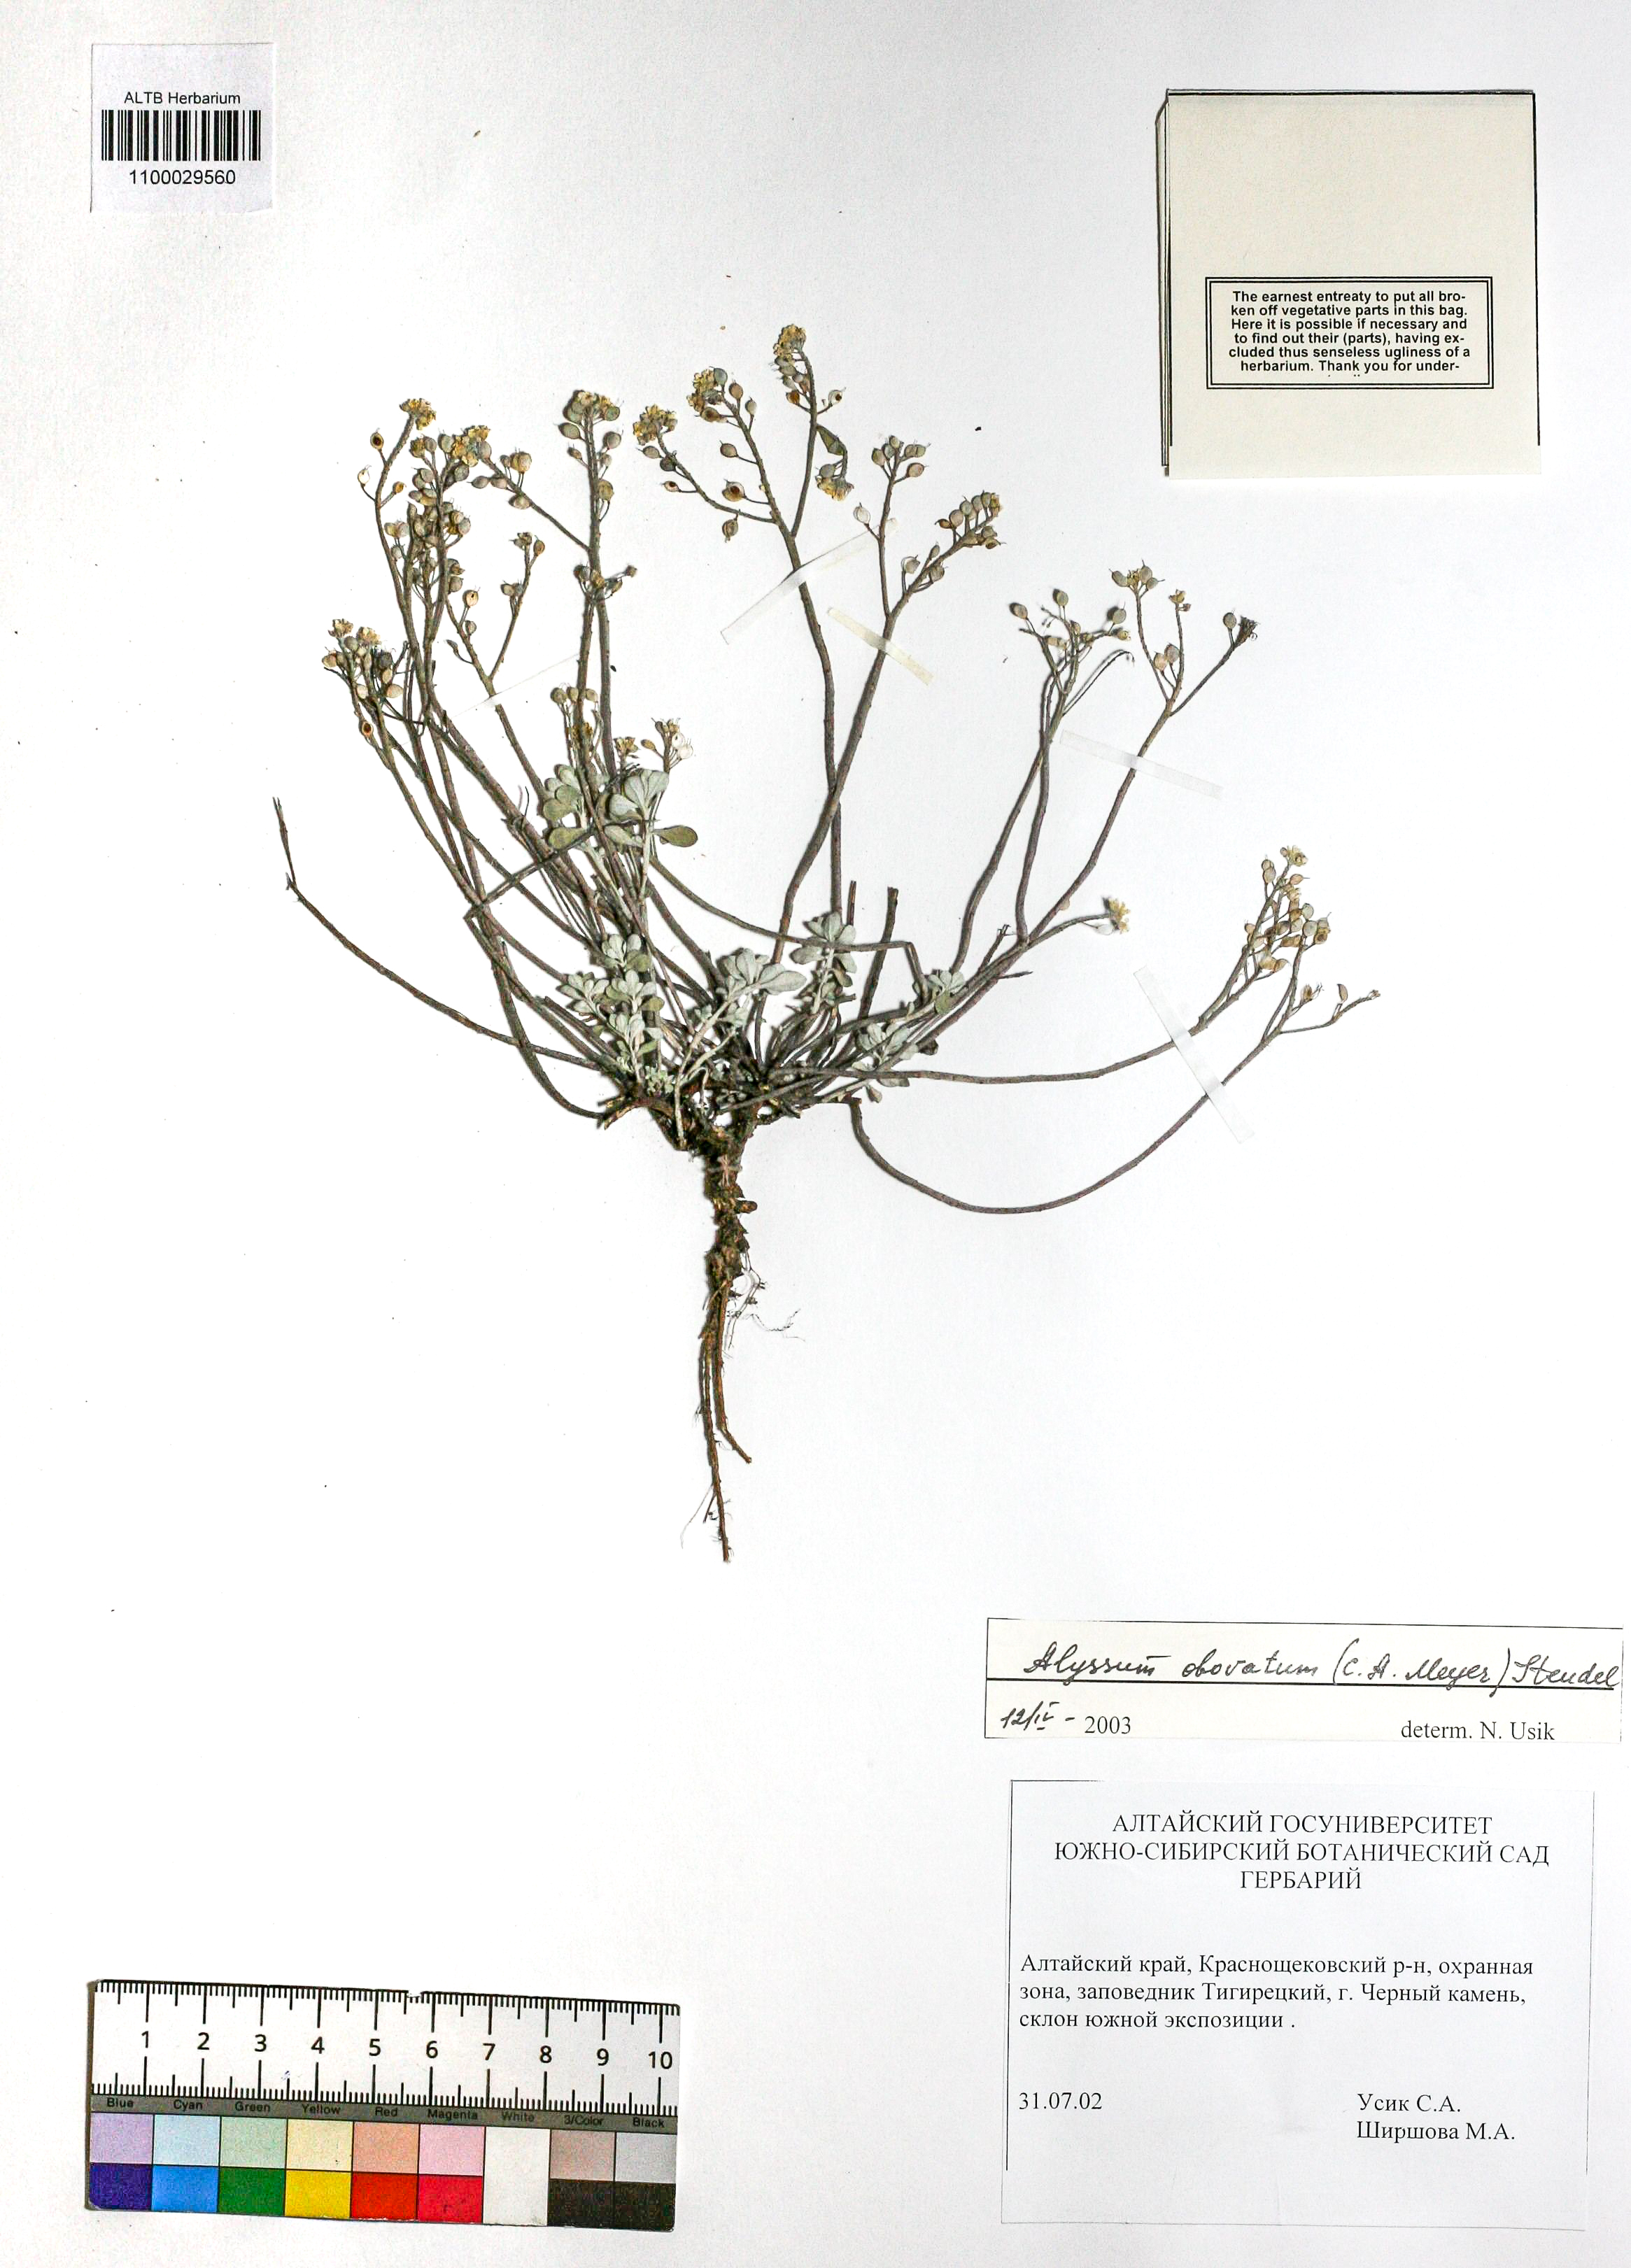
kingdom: Plantae
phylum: Tracheophyta
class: Magnoliopsida
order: Brassicales
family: Brassicaceae
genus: Odontarrhena
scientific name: Odontarrhena obovata
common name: American alyssum
